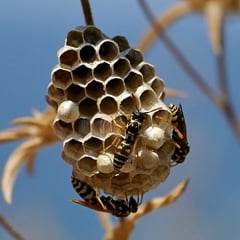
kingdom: Animalia
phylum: Arthropoda
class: Insecta
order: Hymenoptera
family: Eumenidae
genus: Polistes
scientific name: Polistes
